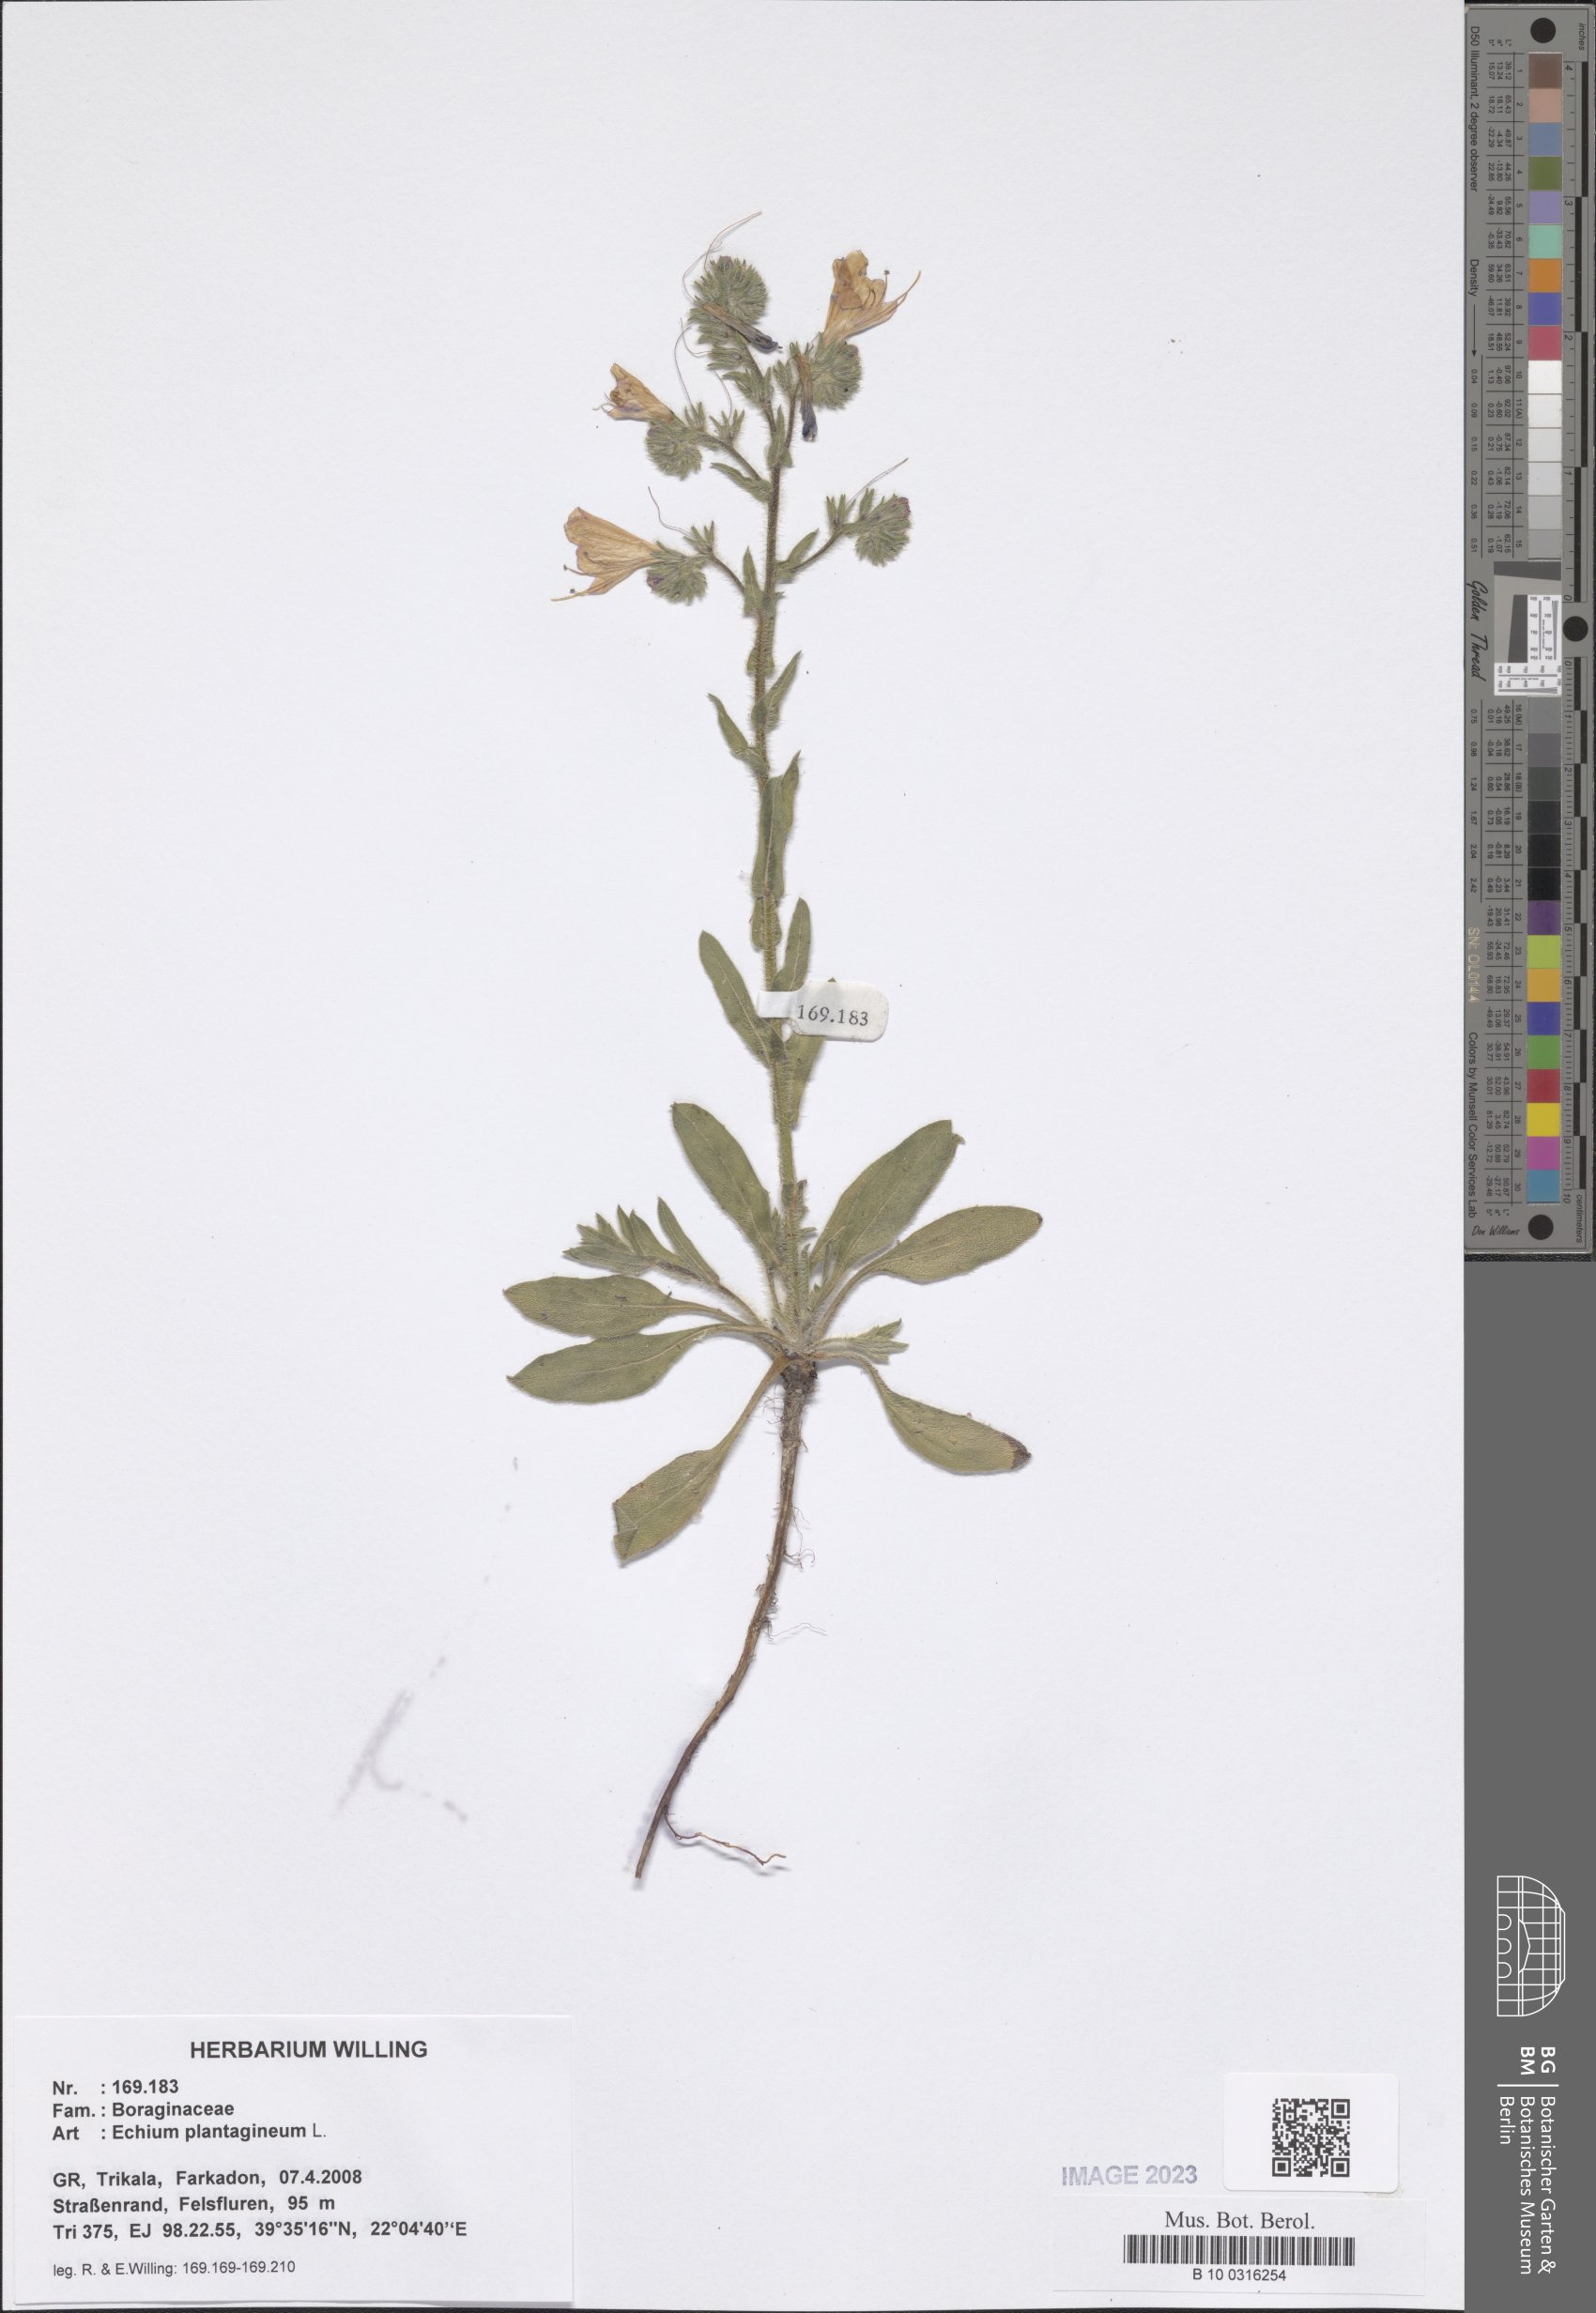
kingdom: Plantae
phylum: Tracheophyta
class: Magnoliopsida
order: Boraginales
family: Boraginaceae
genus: Echium
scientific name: Echium plantagineum
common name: Purple viper's-bugloss
